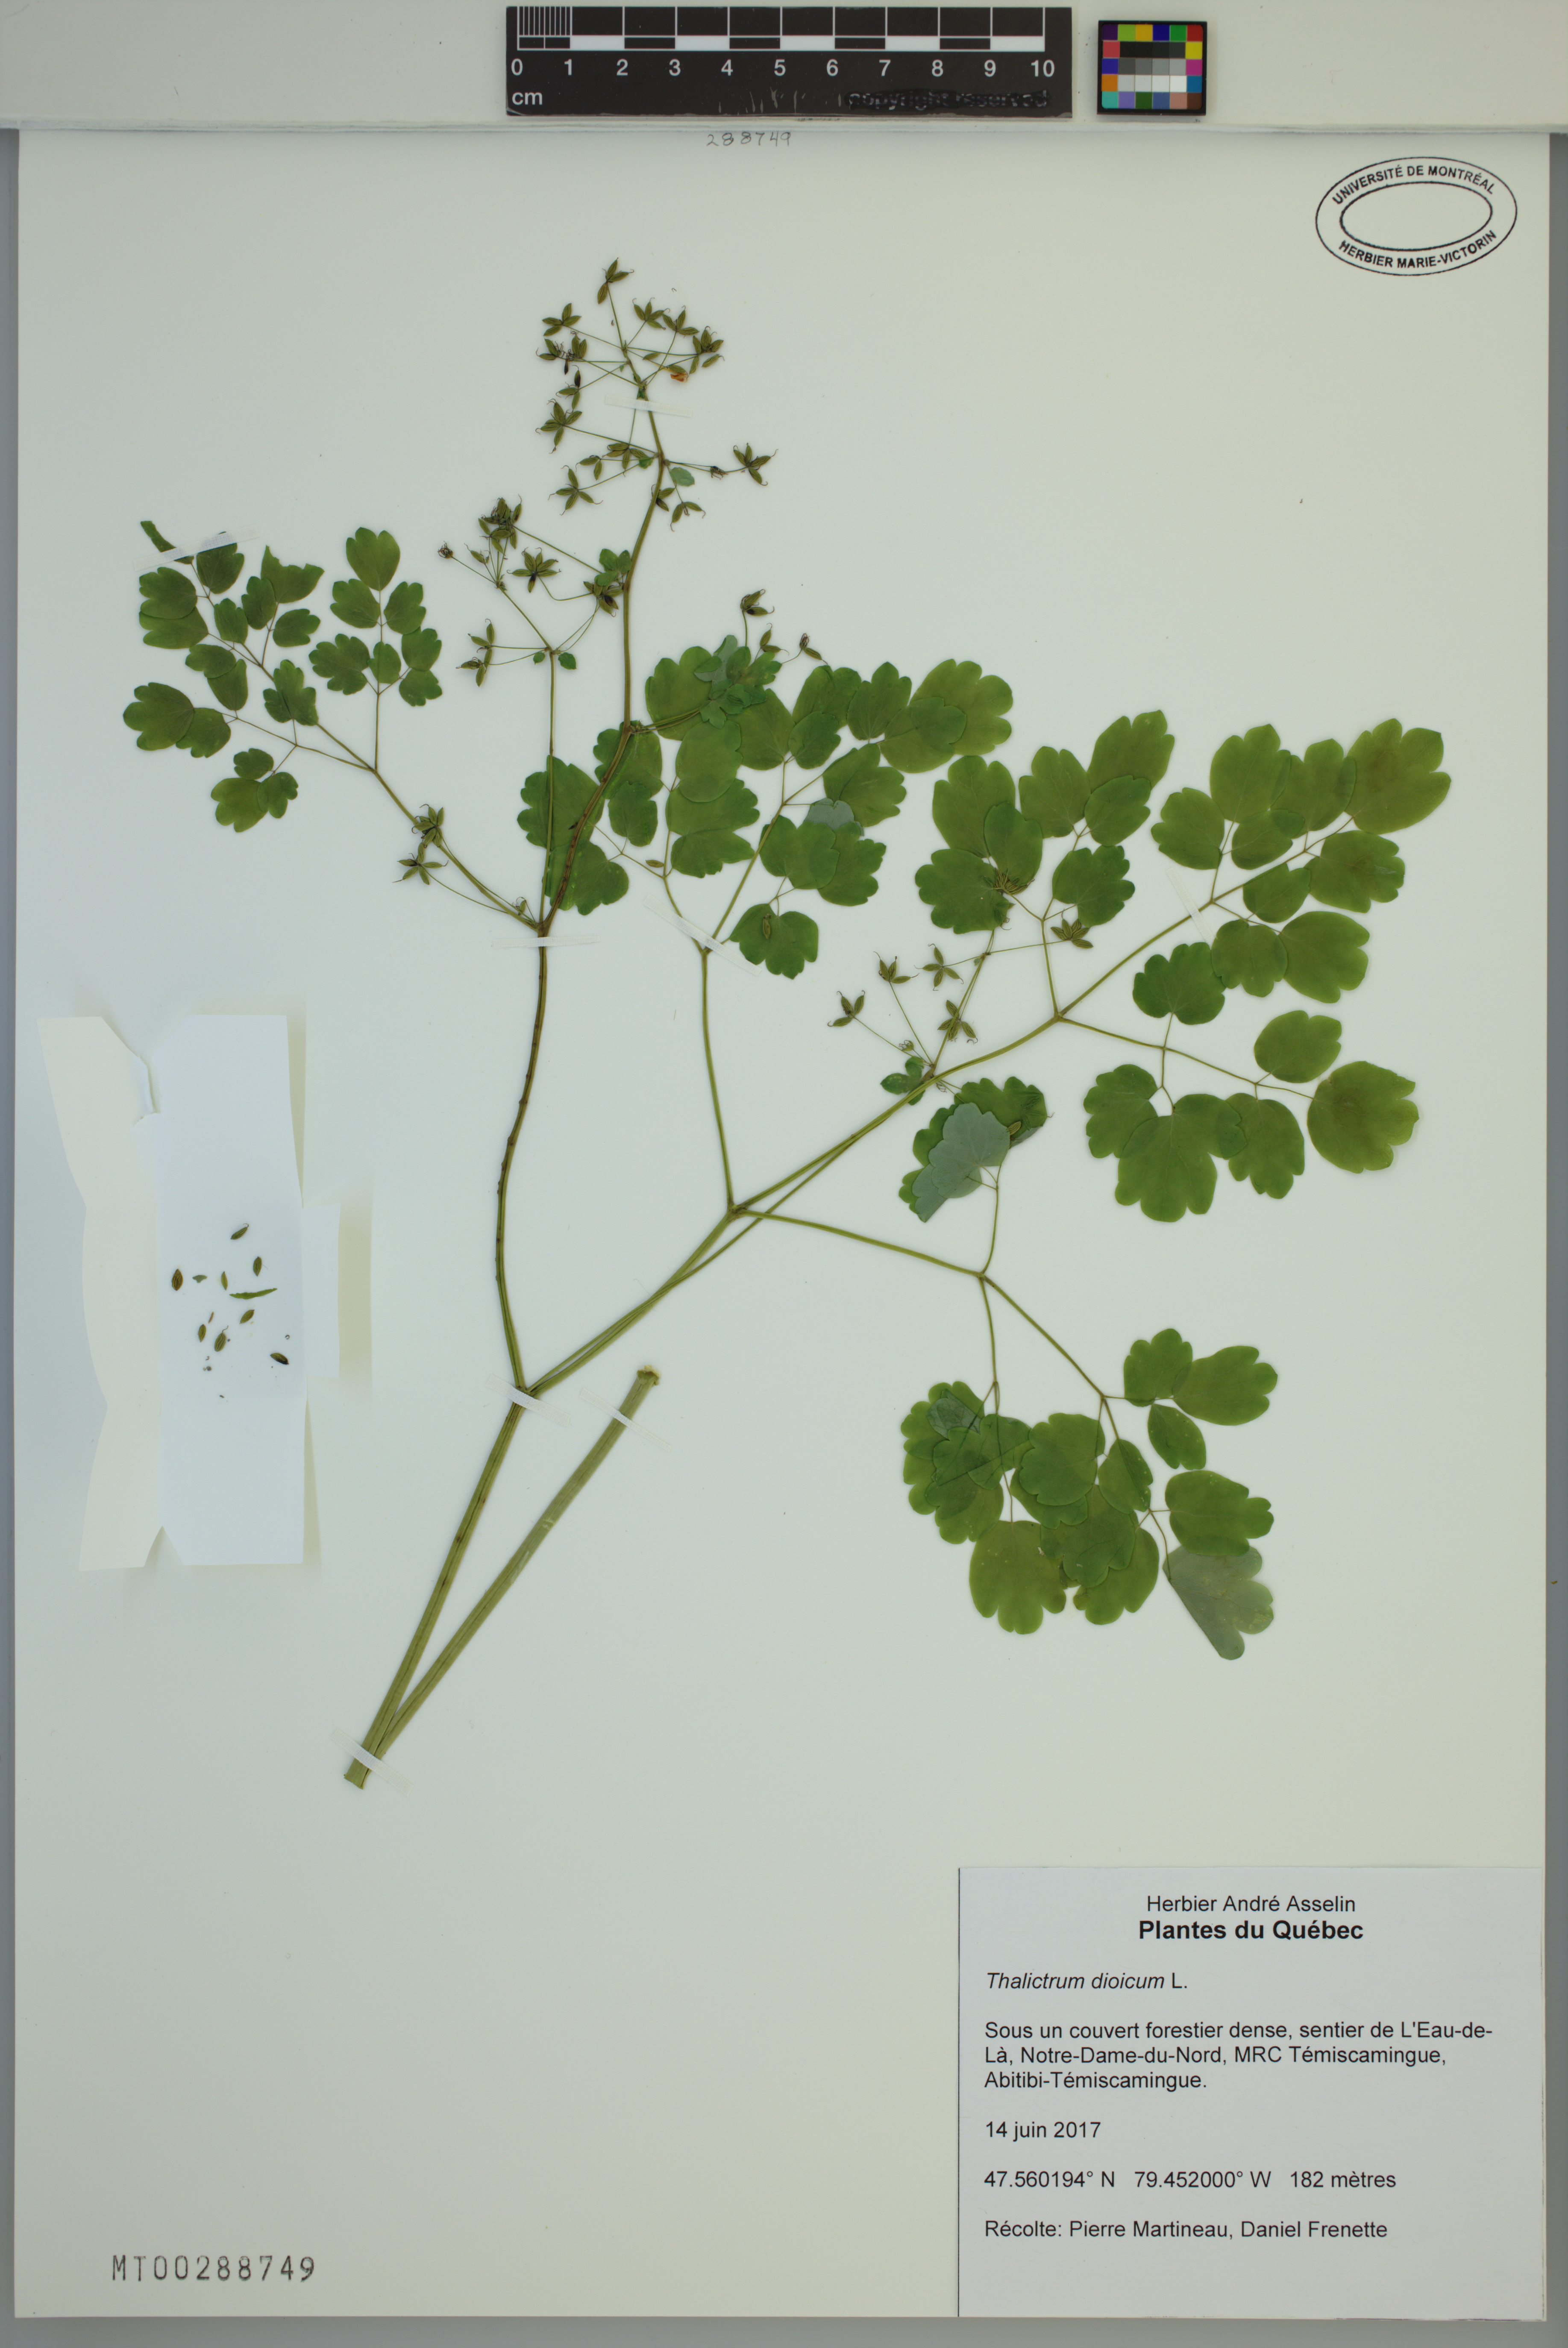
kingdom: Plantae
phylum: Tracheophyta
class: Magnoliopsida
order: Ranunculales
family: Ranunculaceae
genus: Thalictrum
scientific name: Thalictrum dioicum
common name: Early meadow-rue
